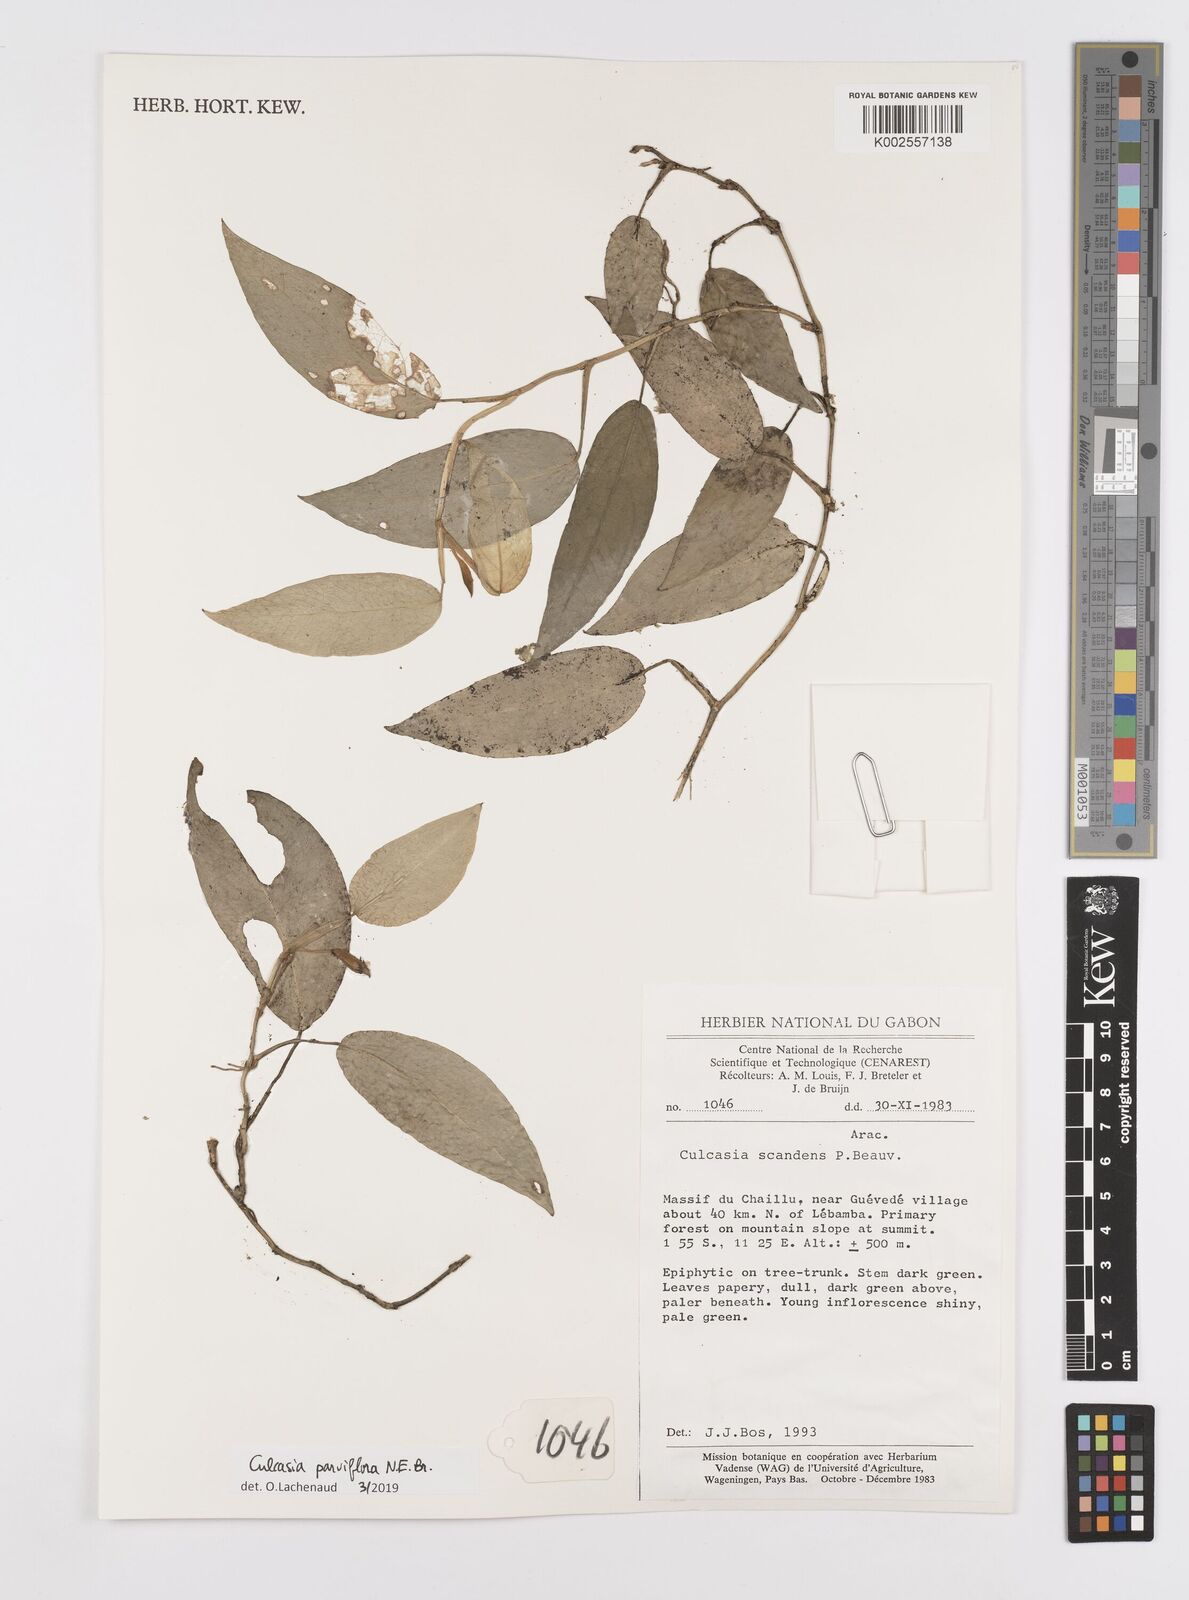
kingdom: Plantae
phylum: Tracheophyta
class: Liliopsida
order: Alismatales
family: Araceae
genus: Culcasia
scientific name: Culcasia parviflora
